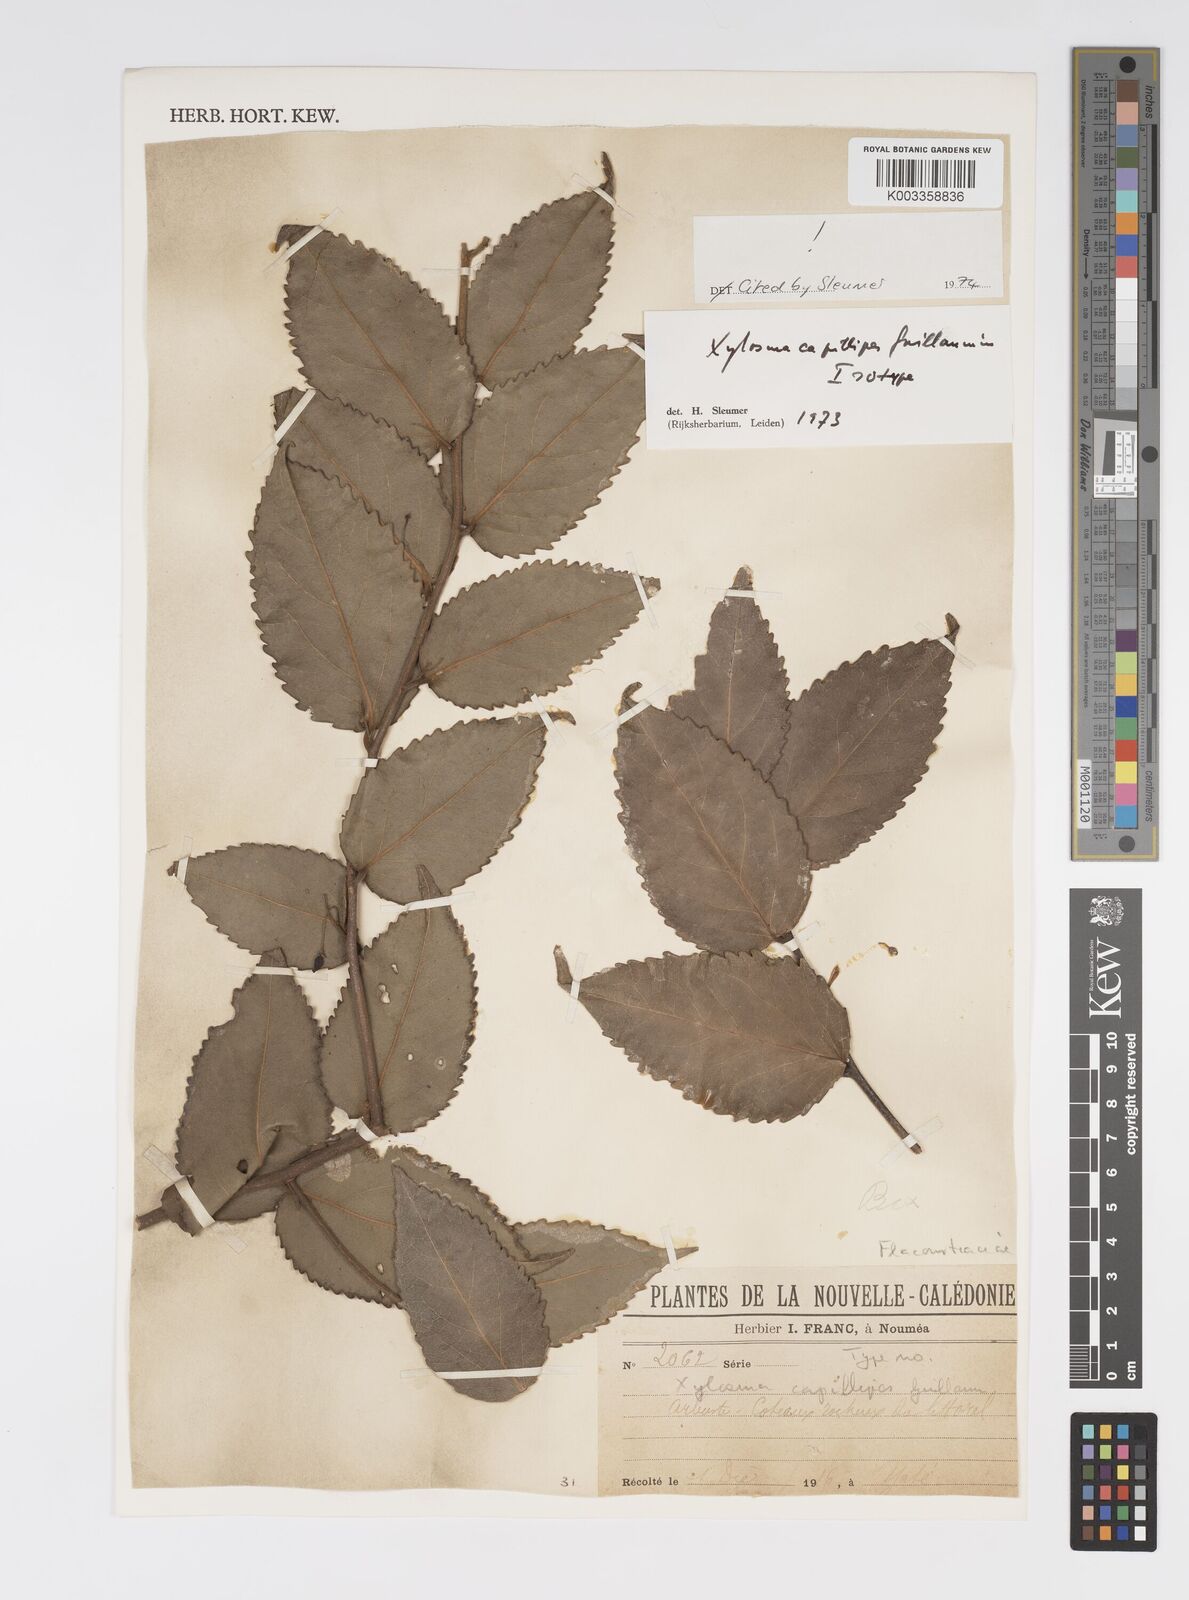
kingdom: Plantae
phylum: Tracheophyta
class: Magnoliopsida
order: Malpighiales
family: Salicaceae
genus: Xylosma
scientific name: Xylosma capillipes
